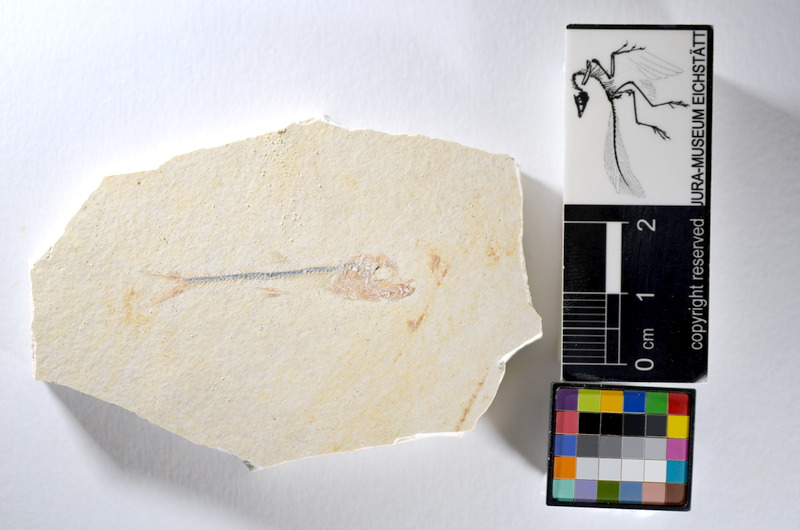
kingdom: Animalia
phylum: Chordata
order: Salmoniformes
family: Orthogonikleithridae
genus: Orthogonikleithrus
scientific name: Orthogonikleithrus hoelli
